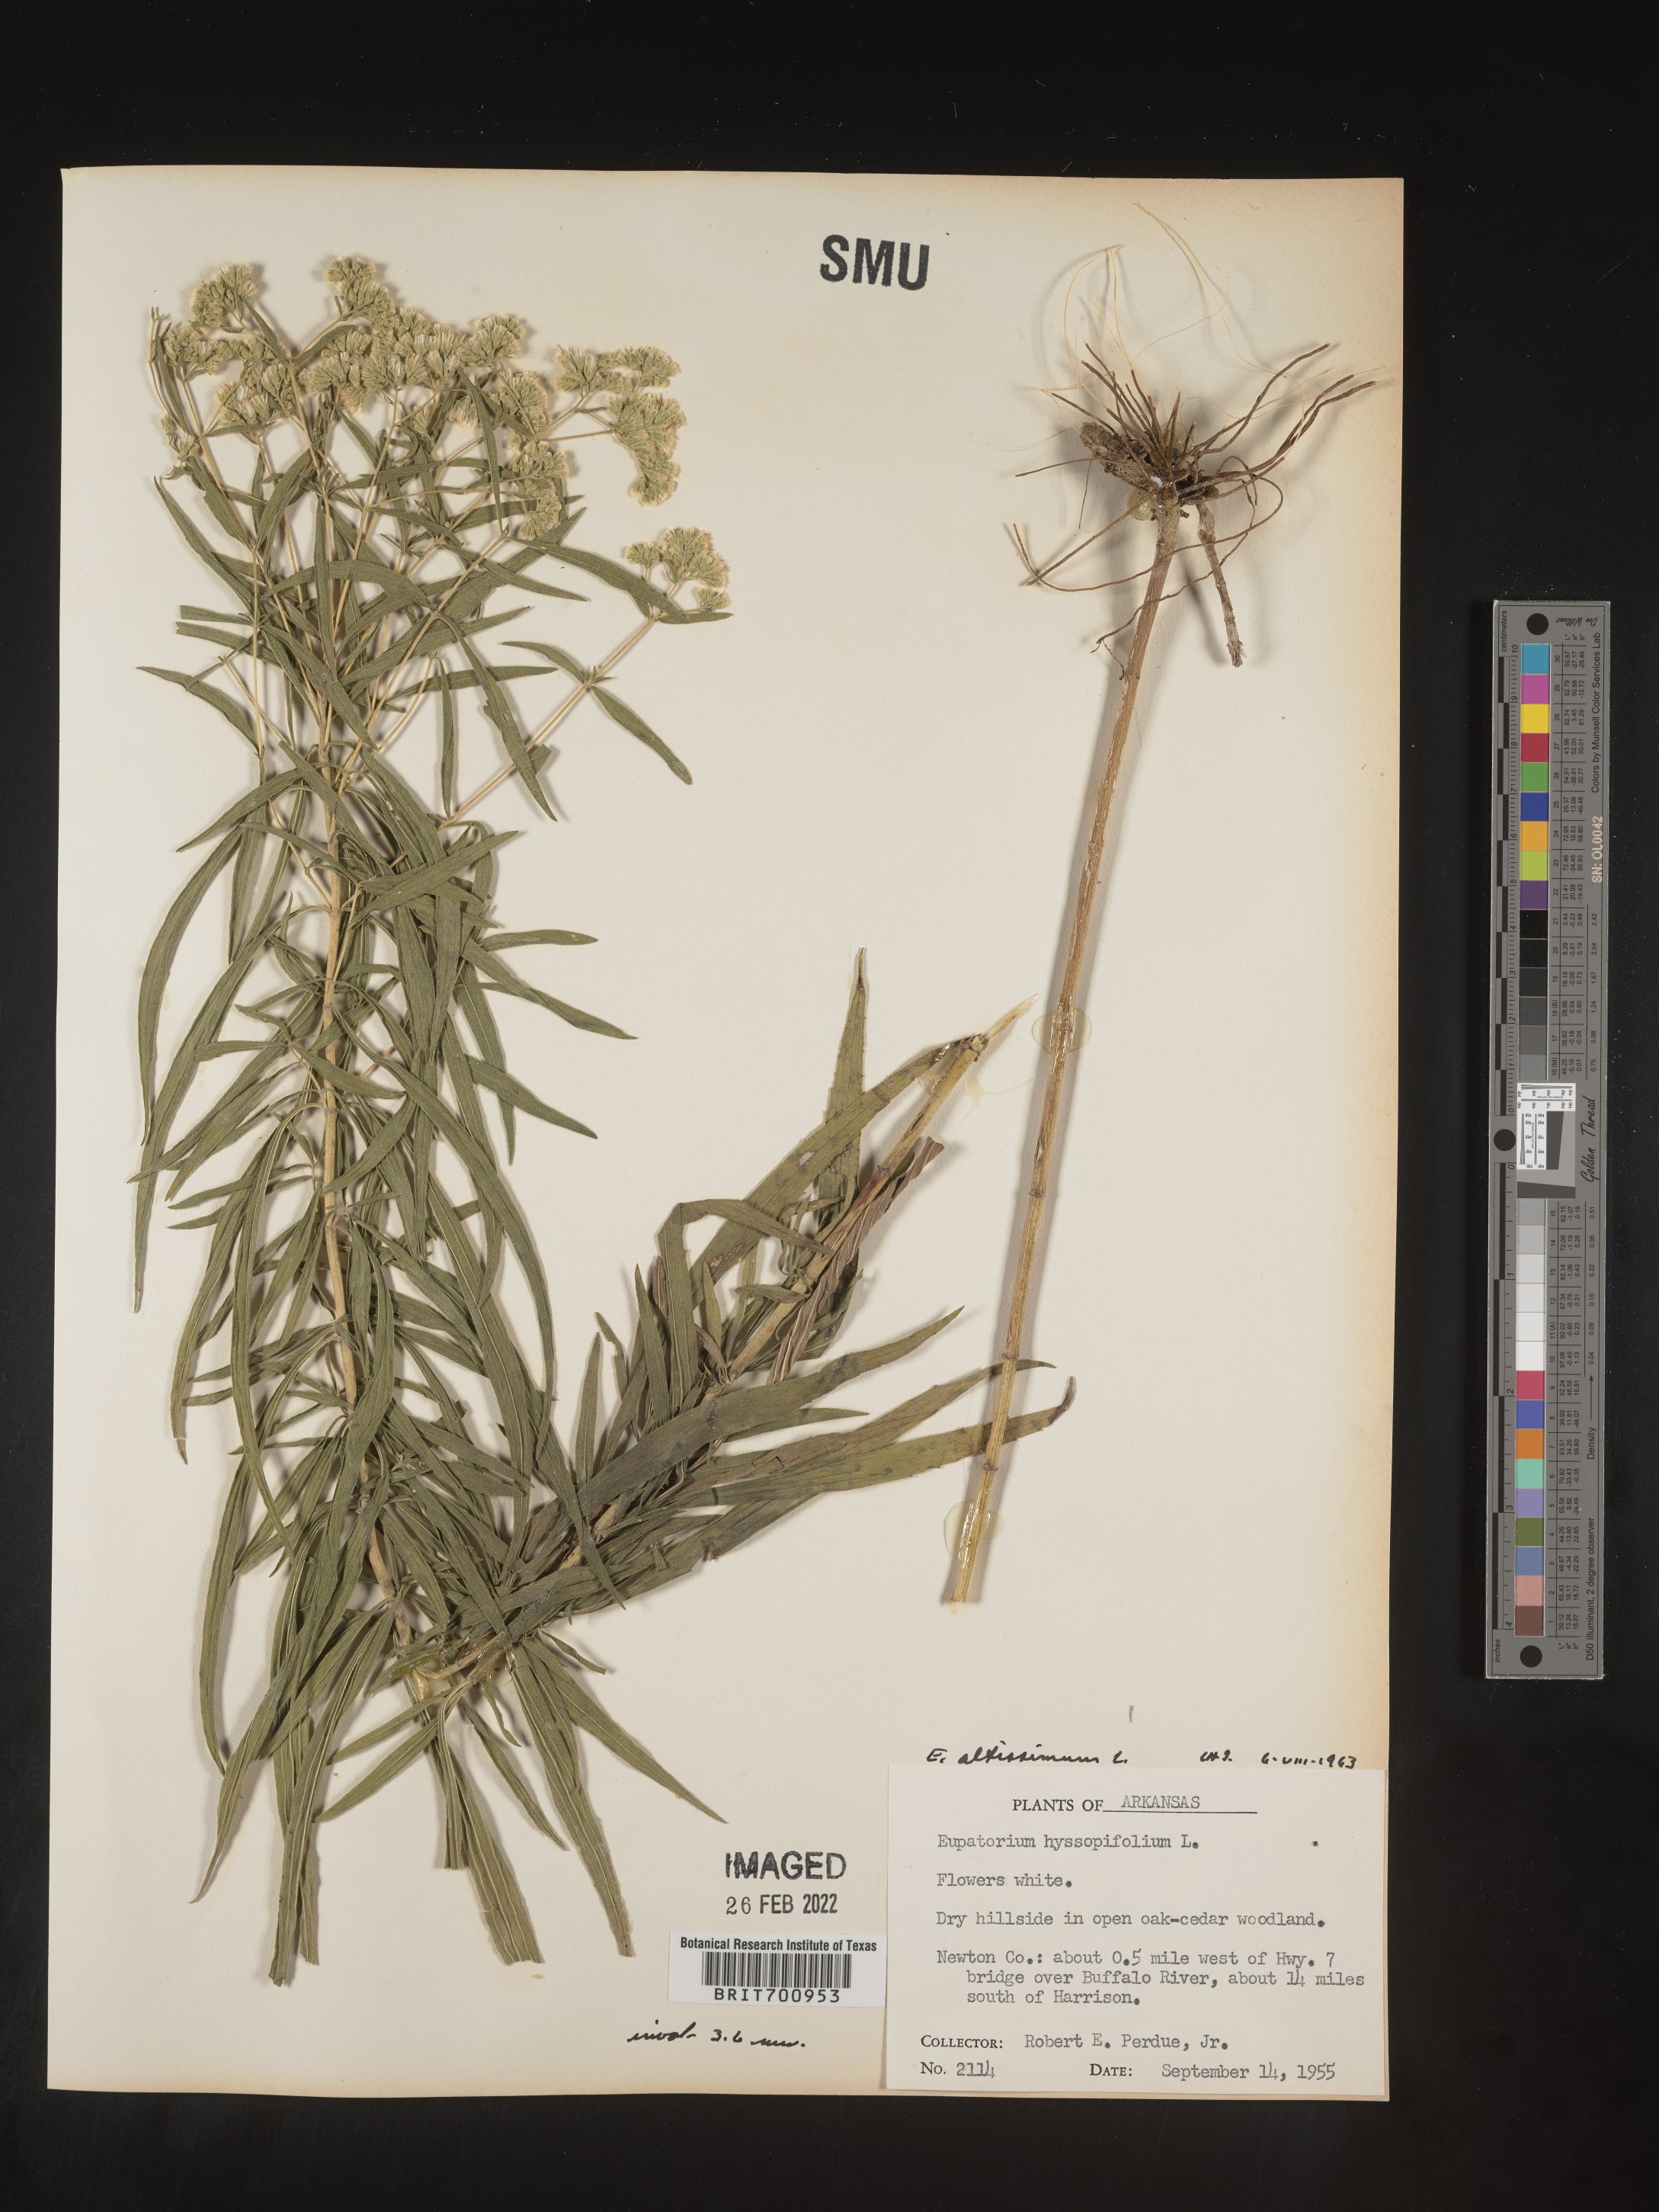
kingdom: Plantae
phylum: Tracheophyta
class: Magnoliopsida
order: Asterales
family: Asteraceae
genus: Eupatorium
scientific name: Eupatorium altissimum
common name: Tall thoroughwort
